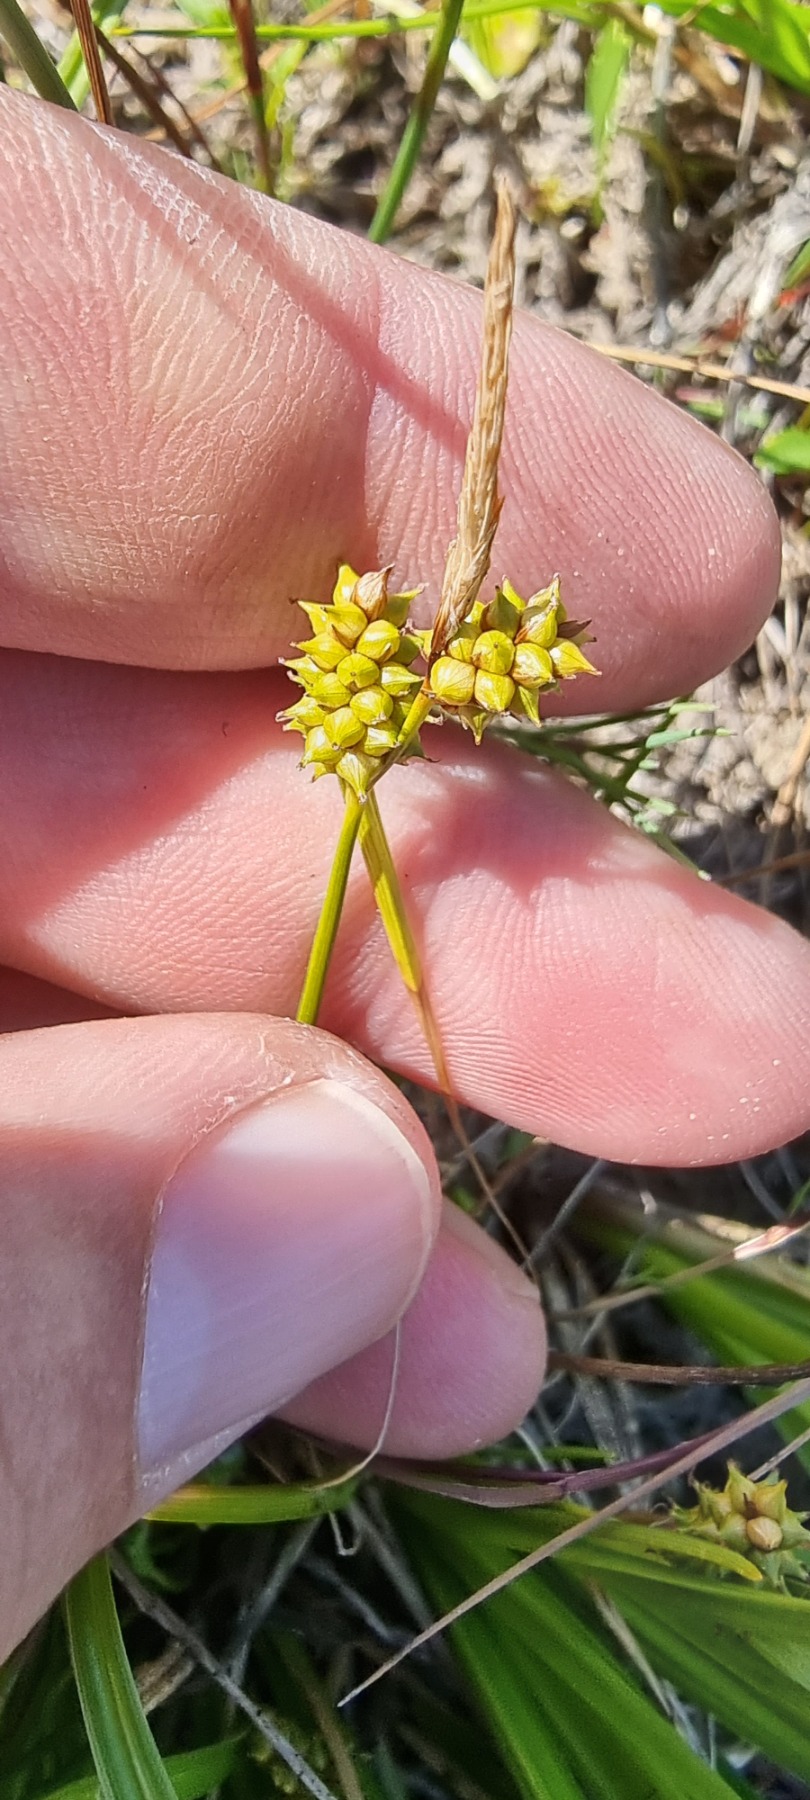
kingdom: Plantae
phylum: Tracheophyta
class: Liliopsida
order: Poales
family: Cyperaceae
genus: Carex
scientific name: Carex oederi
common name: Dværg-star
